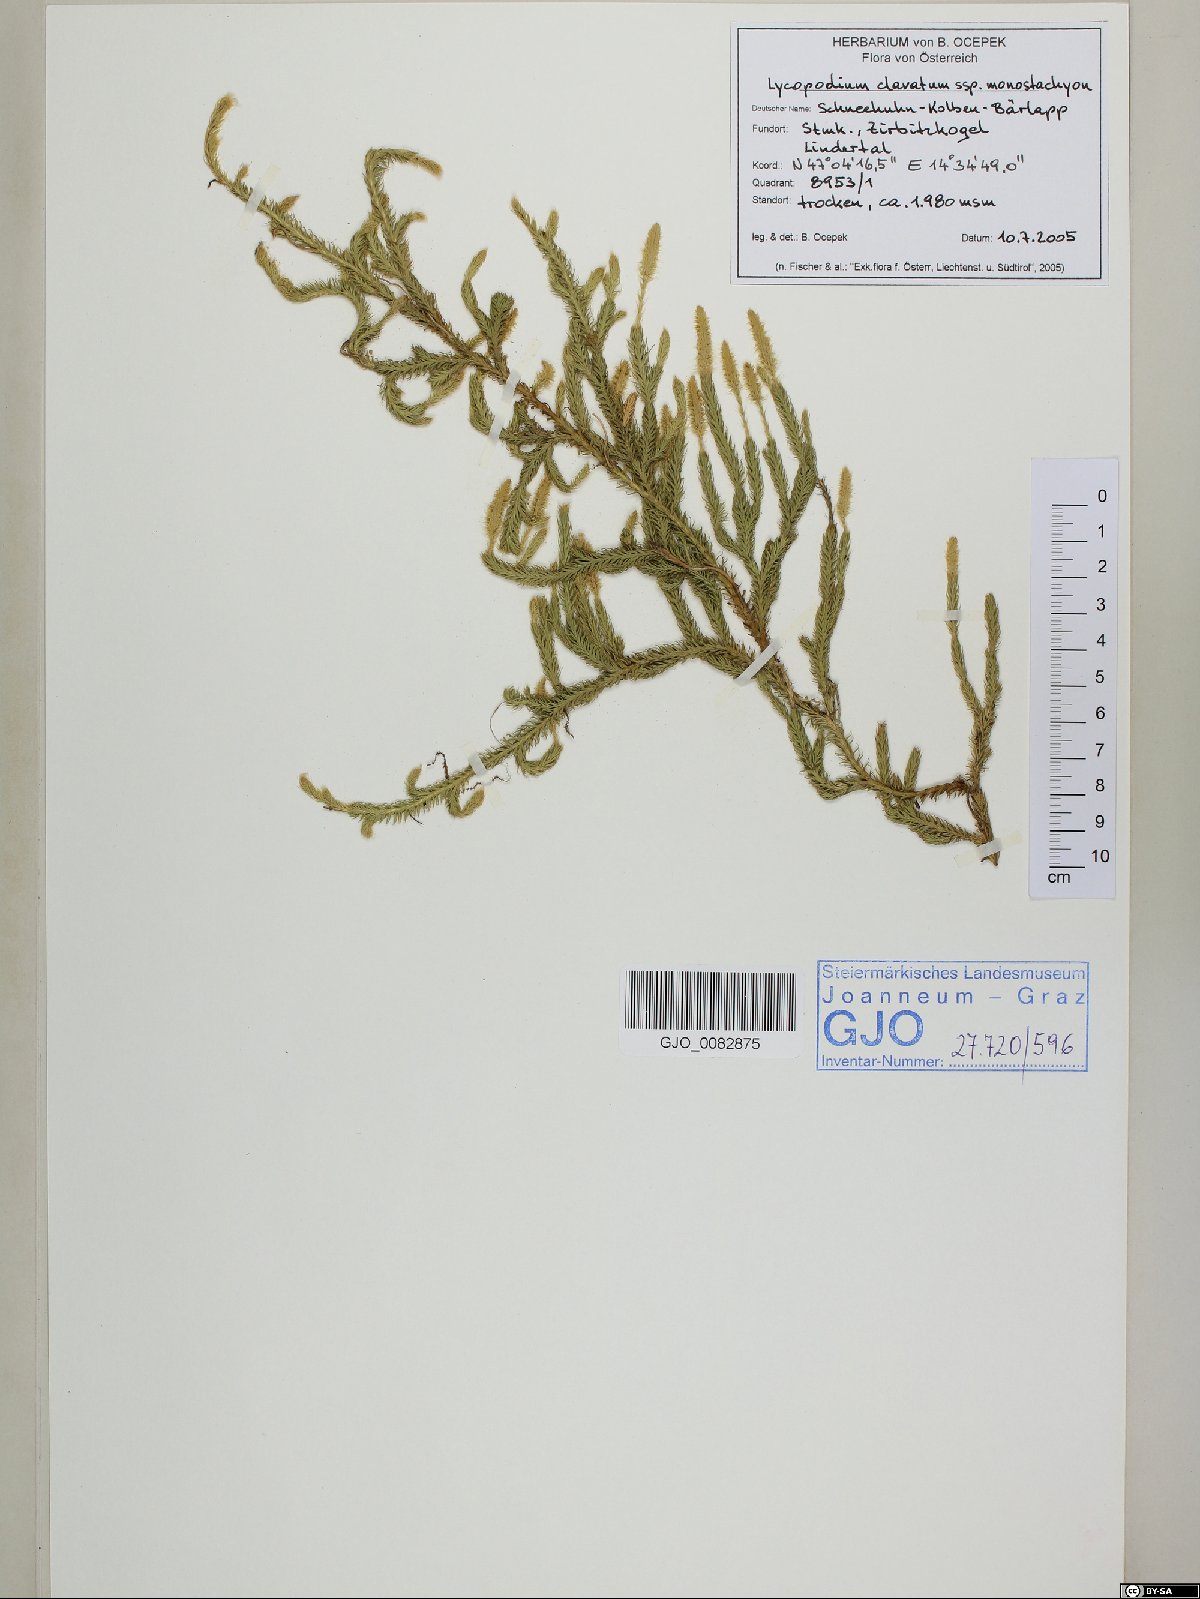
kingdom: Plantae
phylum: Tracheophyta
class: Lycopodiopsida
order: Lycopodiales
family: Lycopodiaceae
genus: Lycopodium
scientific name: Lycopodium lagopus
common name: One-cone clubmoss
